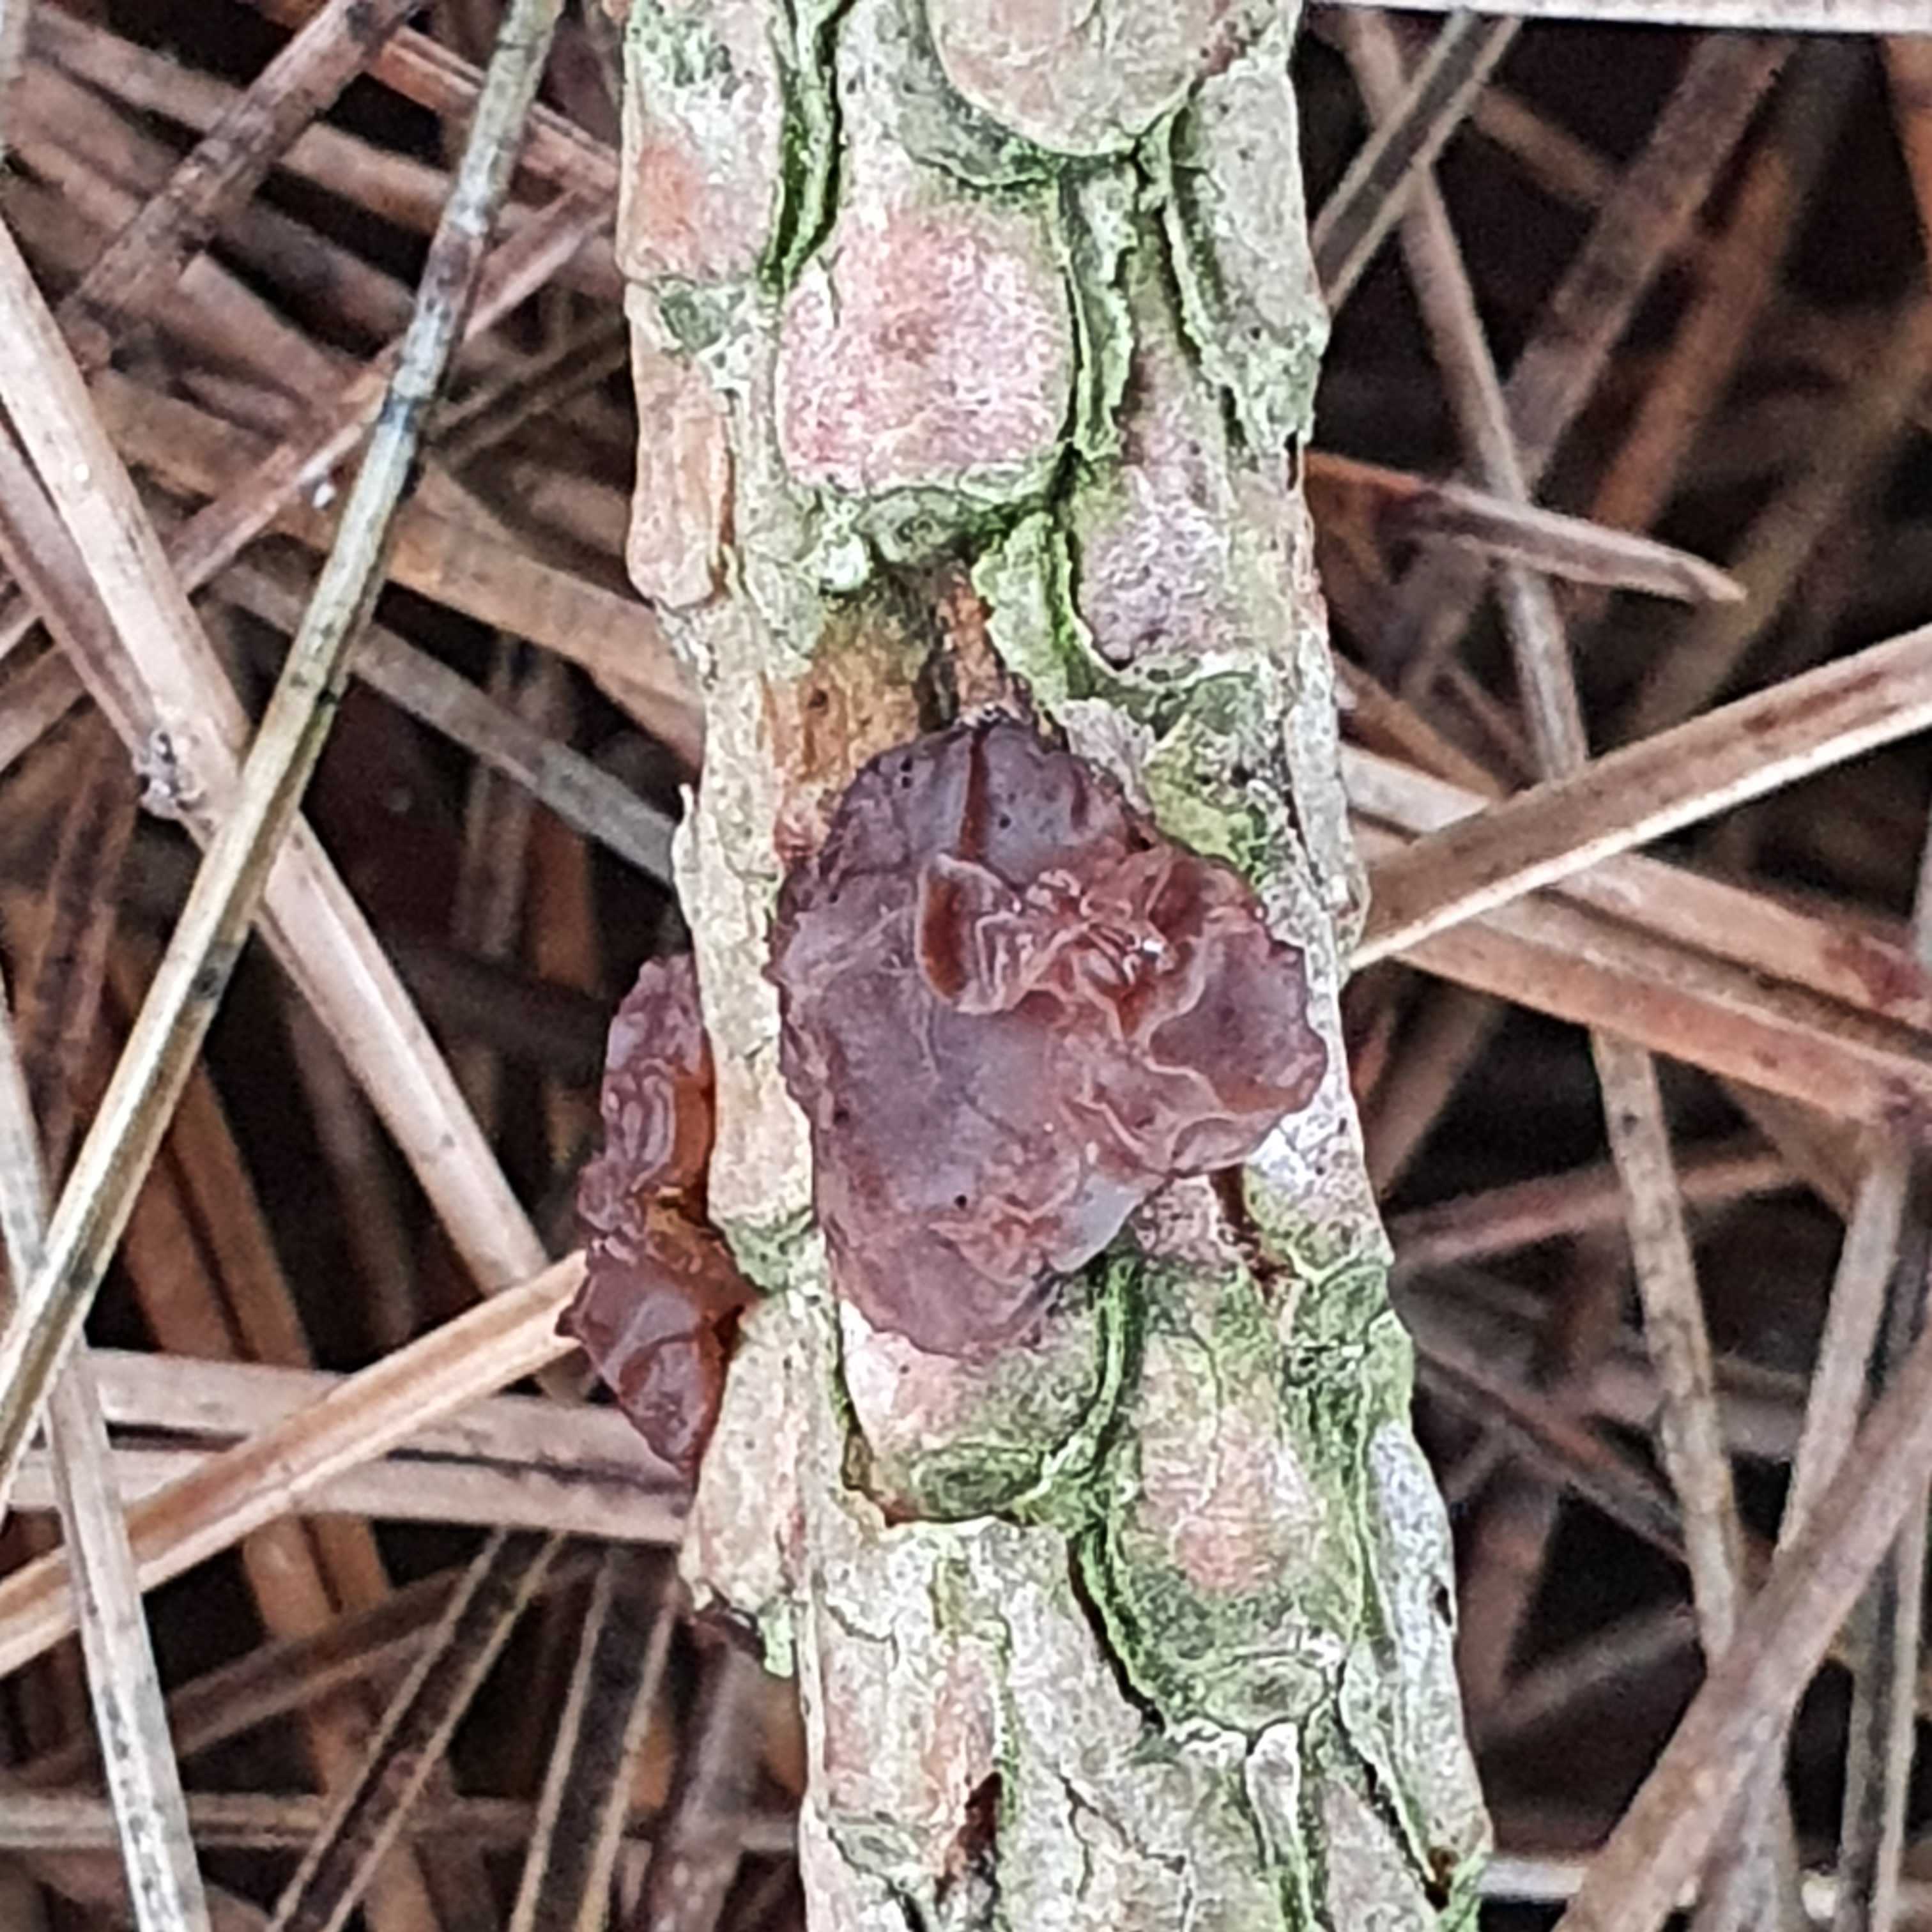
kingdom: Fungi
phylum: Basidiomycota
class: Agaricomycetes
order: Auriculariales
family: Auriculariaceae
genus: Exidia
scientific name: Exidia saccharina
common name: kandis-bævretop
